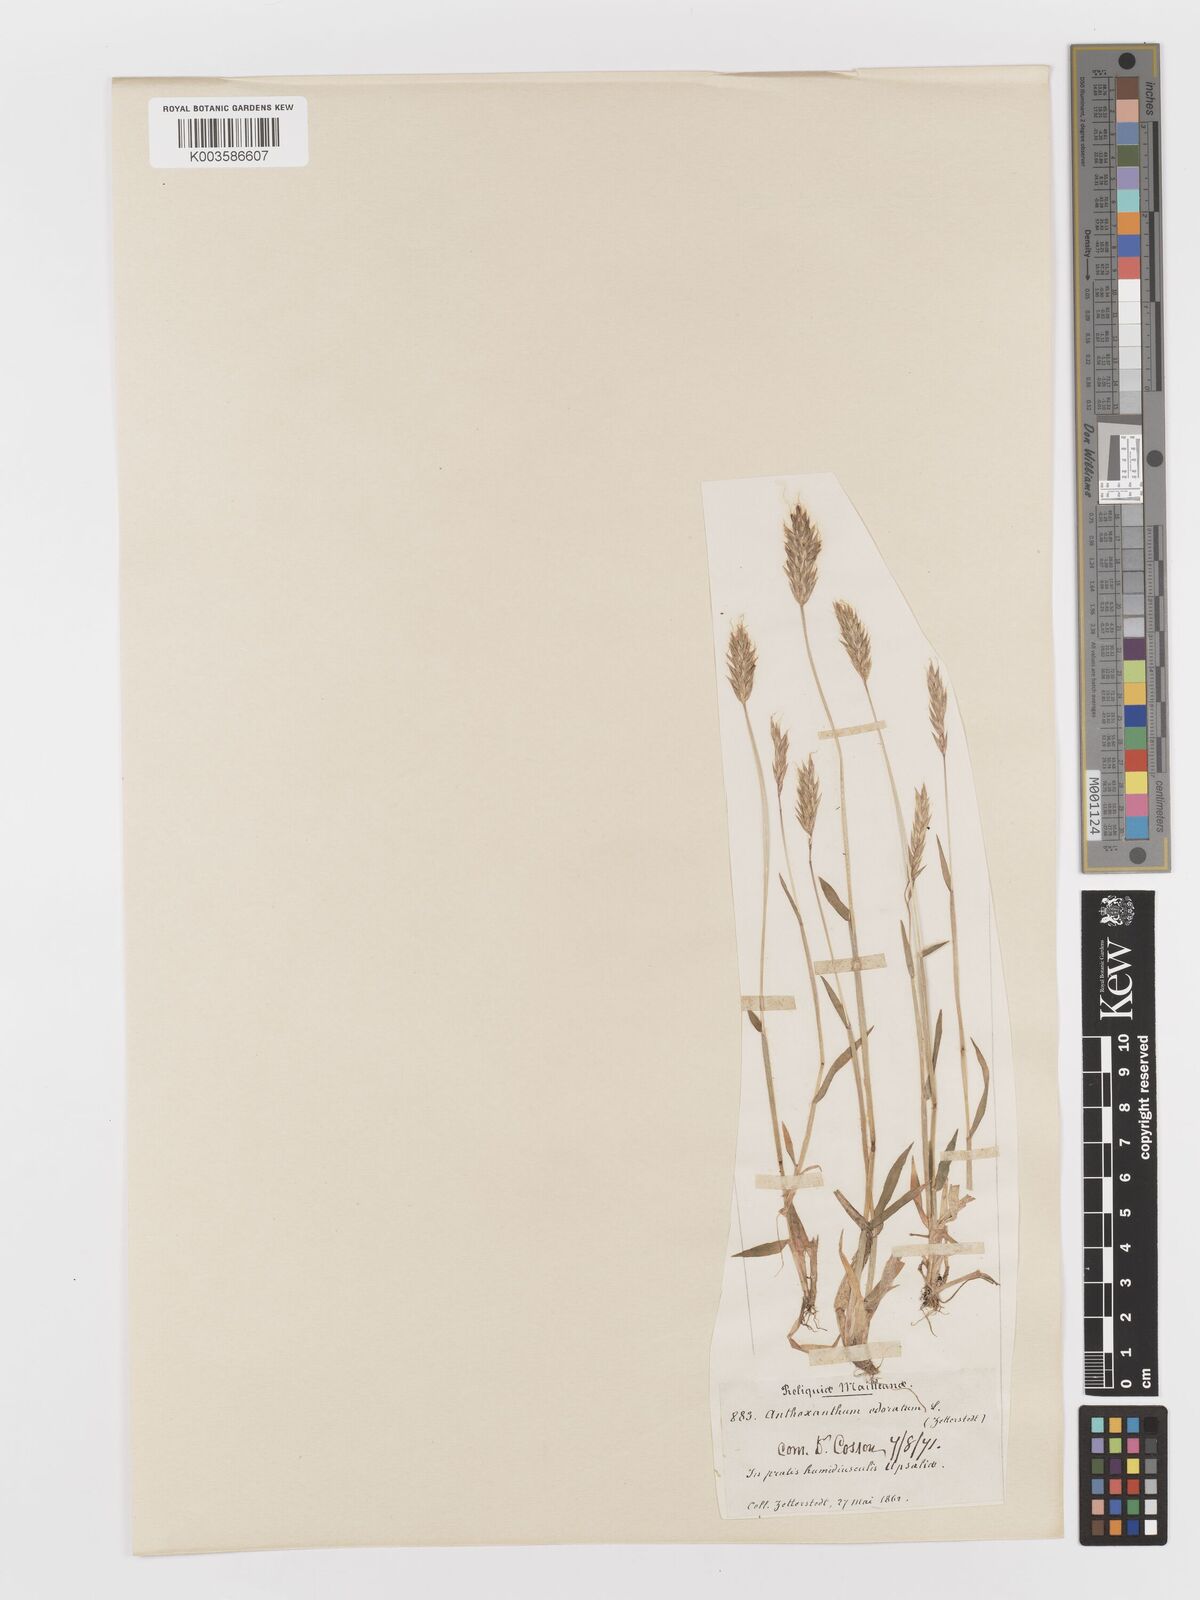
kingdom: Plantae
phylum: Tracheophyta
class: Liliopsida
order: Poales
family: Poaceae
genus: Anthoxanthum
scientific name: Anthoxanthum odoratum
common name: Sweet vernalgrass
